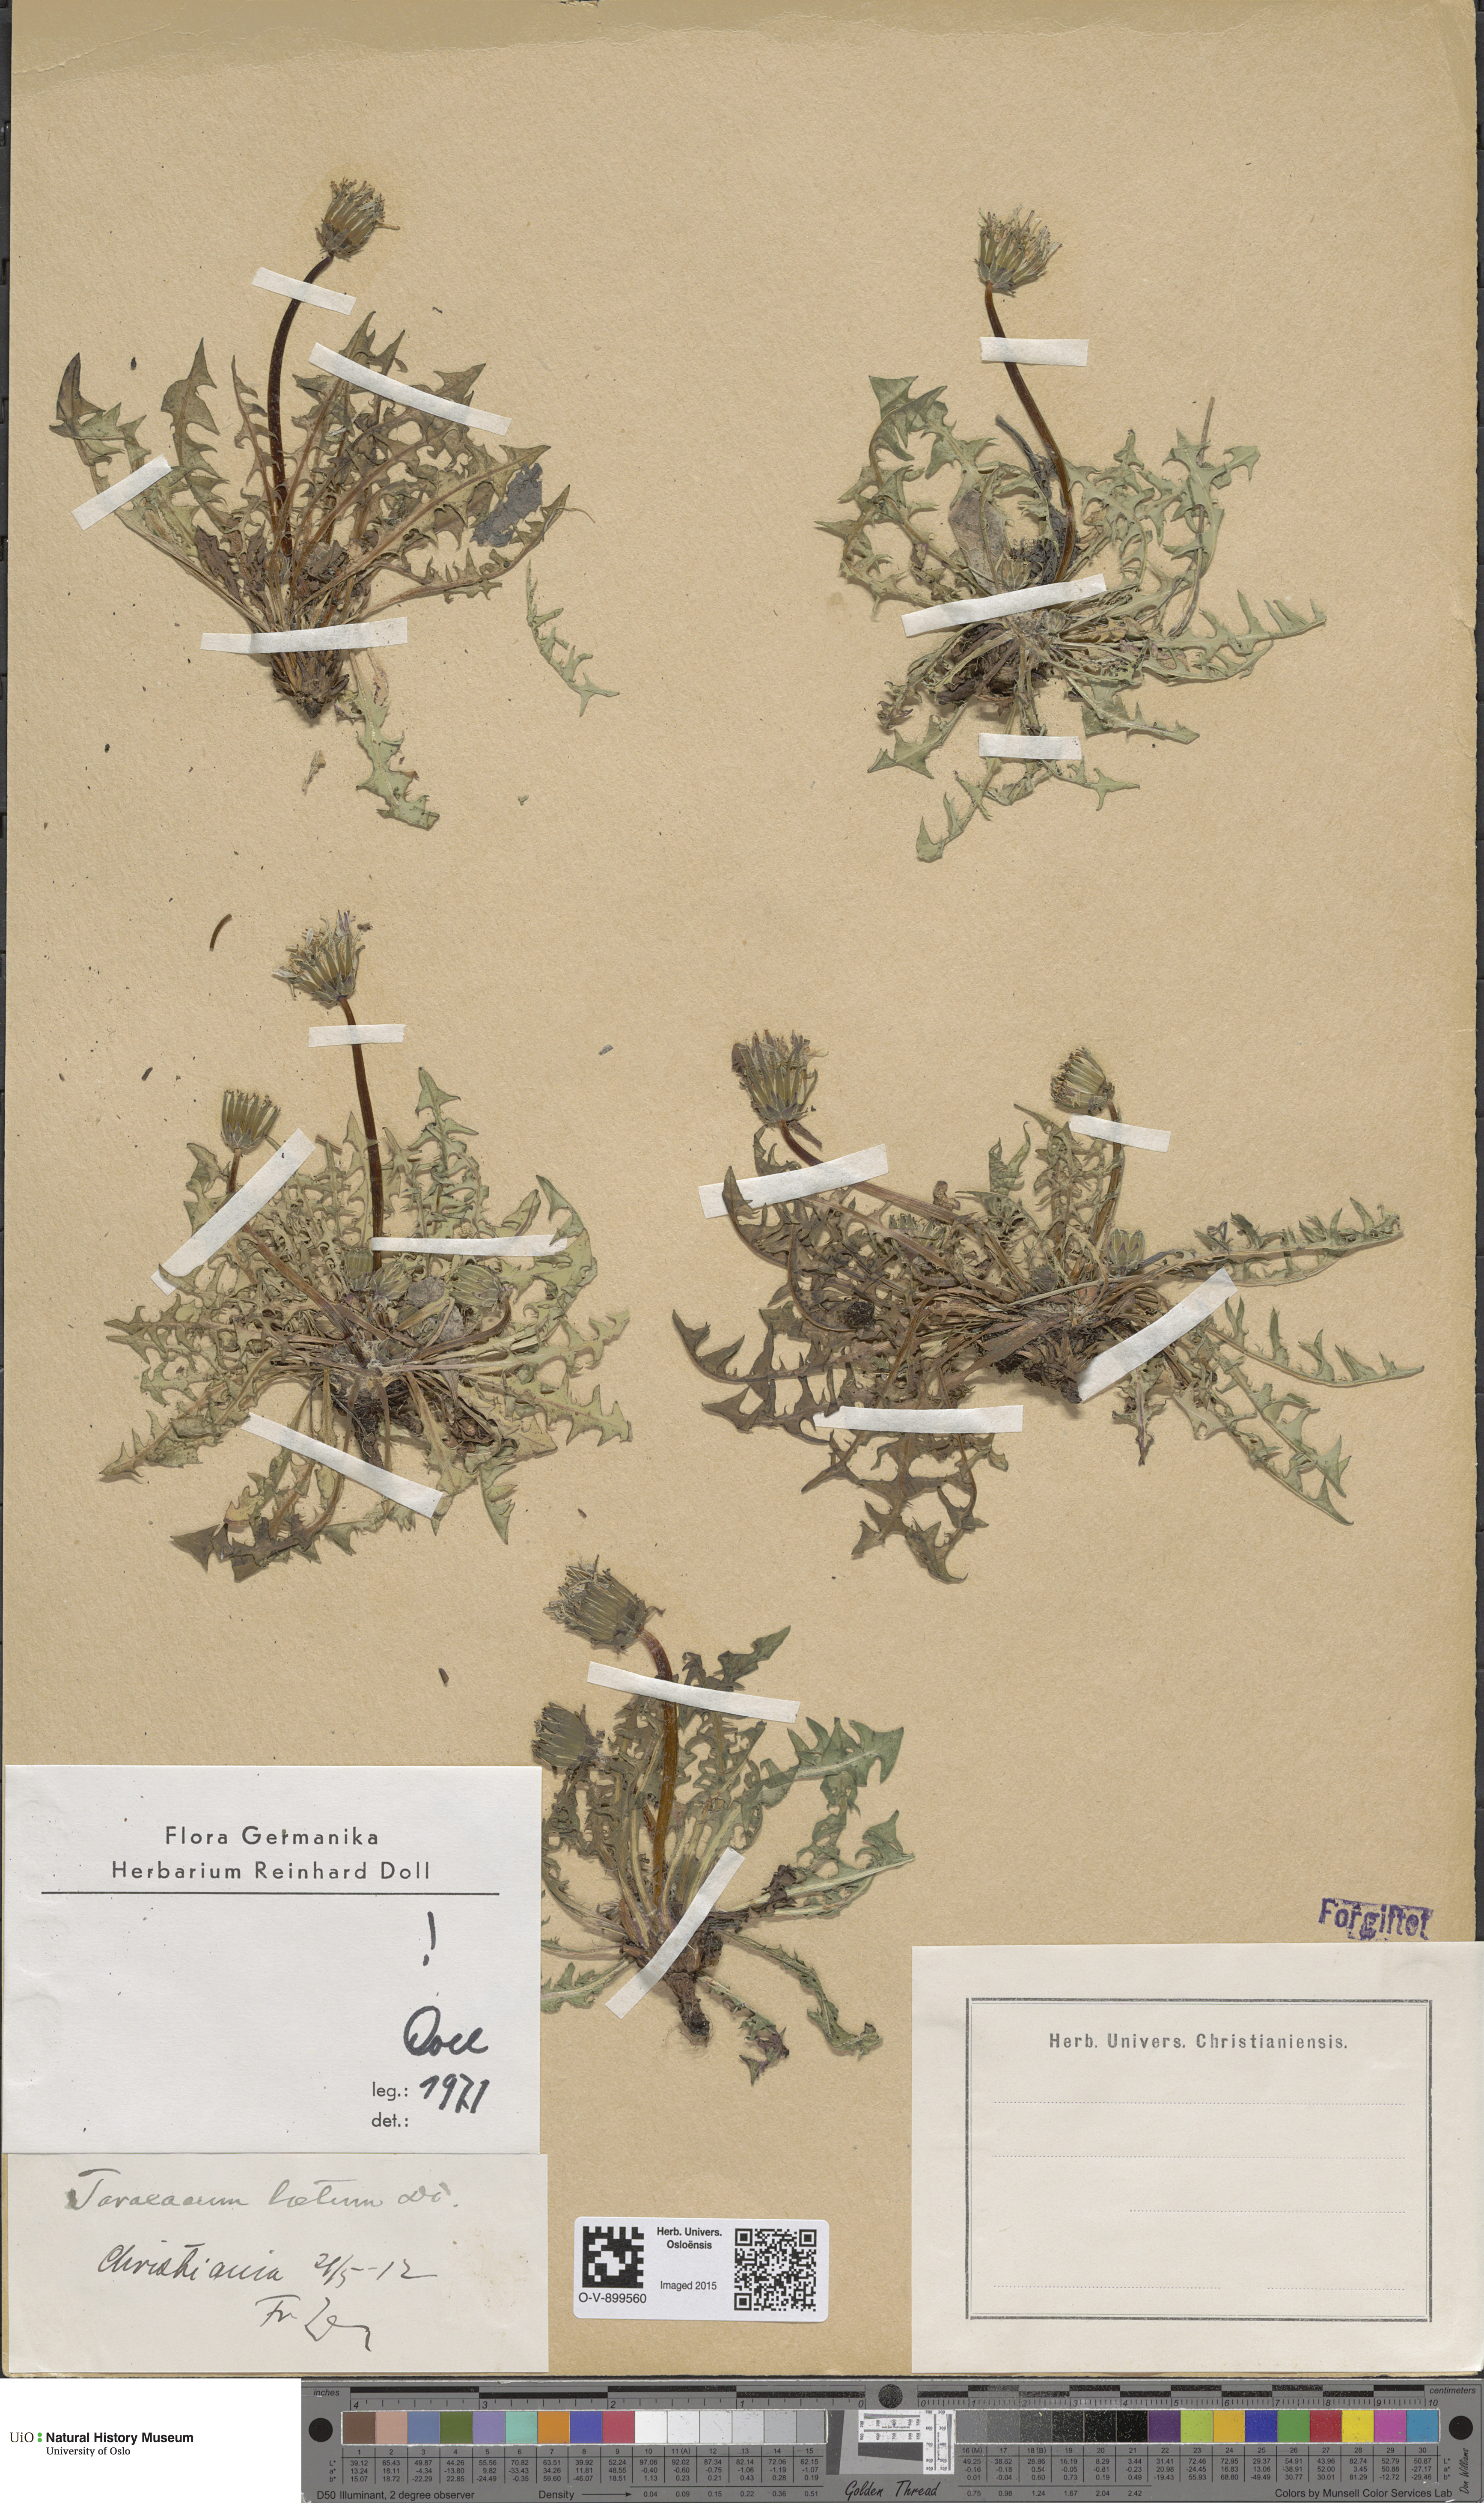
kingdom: Plantae
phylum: Tracheophyta
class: Magnoliopsida
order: Asterales
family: Asteraceae
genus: Taraxacum
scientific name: Taraxacum laetum
